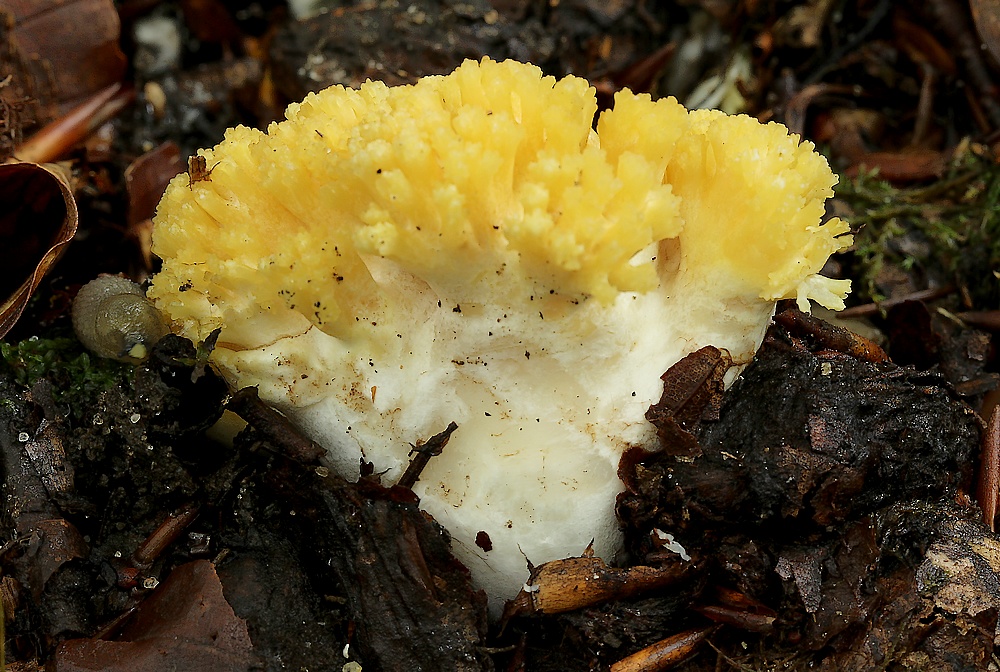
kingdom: Fungi
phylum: Basidiomycota
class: Agaricomycetes
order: Gomphales
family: Gomphaceae
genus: Ramaria
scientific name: Ramaria krieglsteineri
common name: smalsporet koralsvamp
